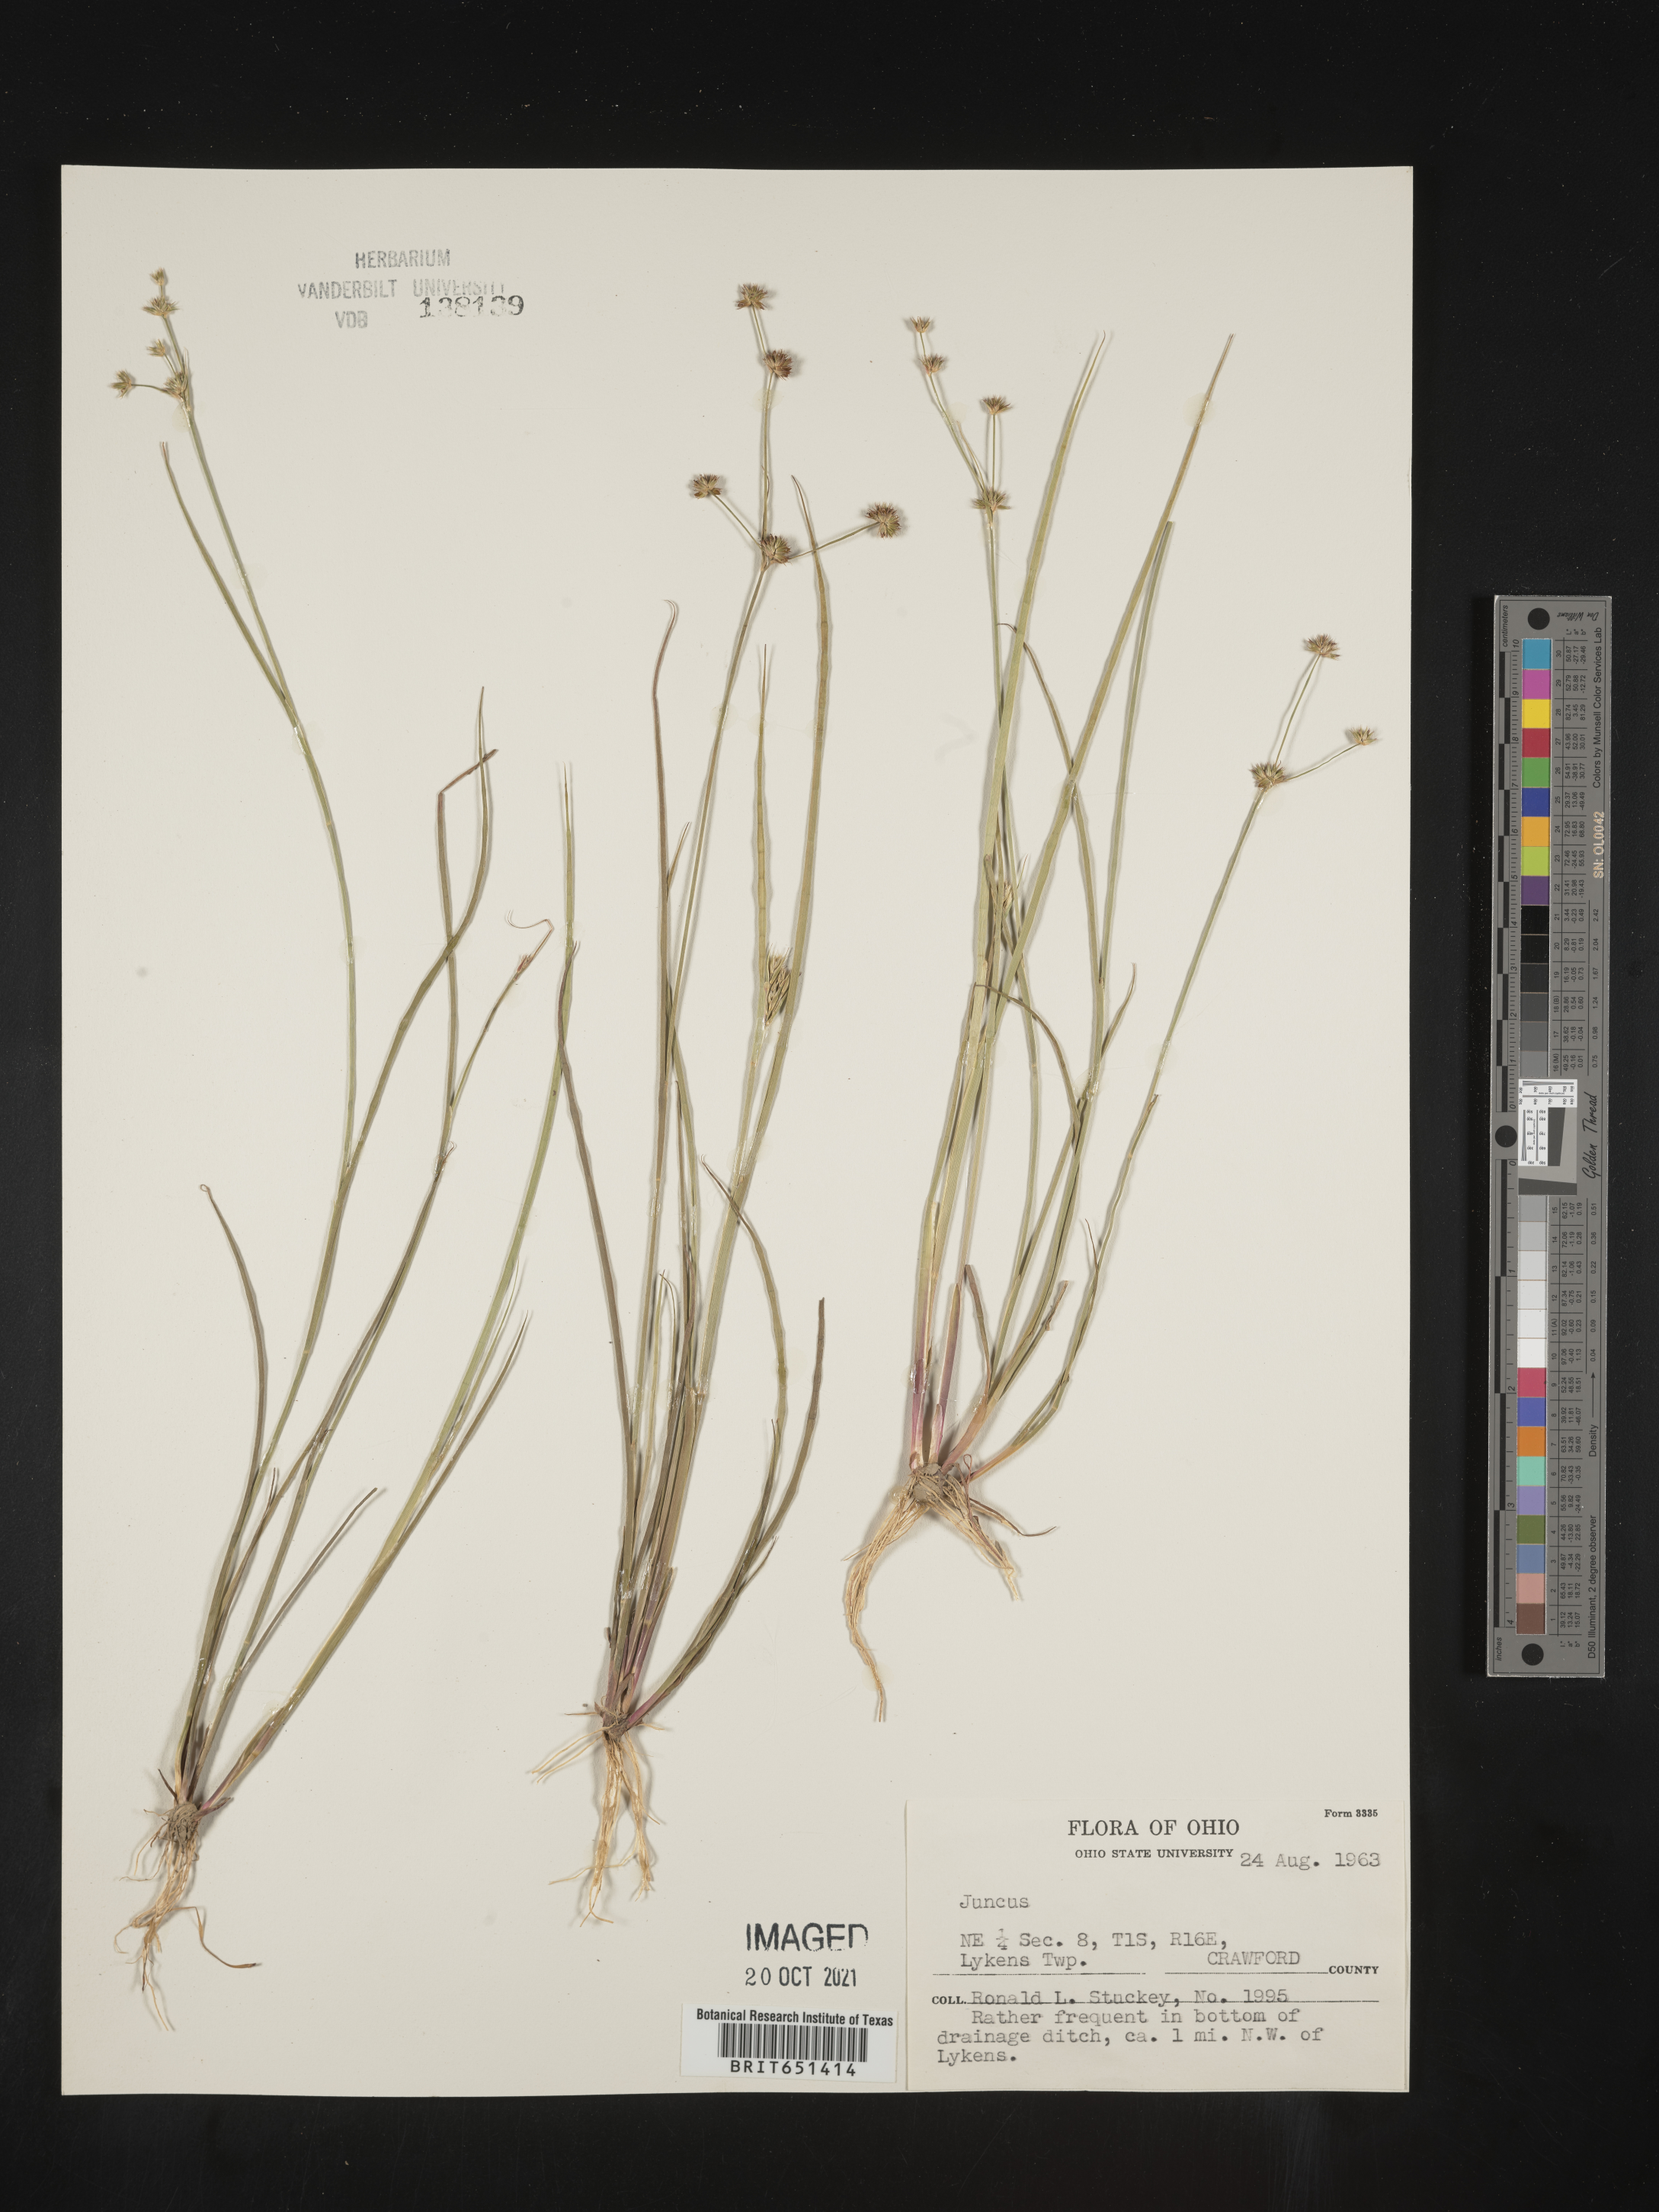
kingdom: Plantae
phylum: Tracheophyta
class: Liliopsida
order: Poales
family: Juncaceae
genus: Juncus
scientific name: Juncus
